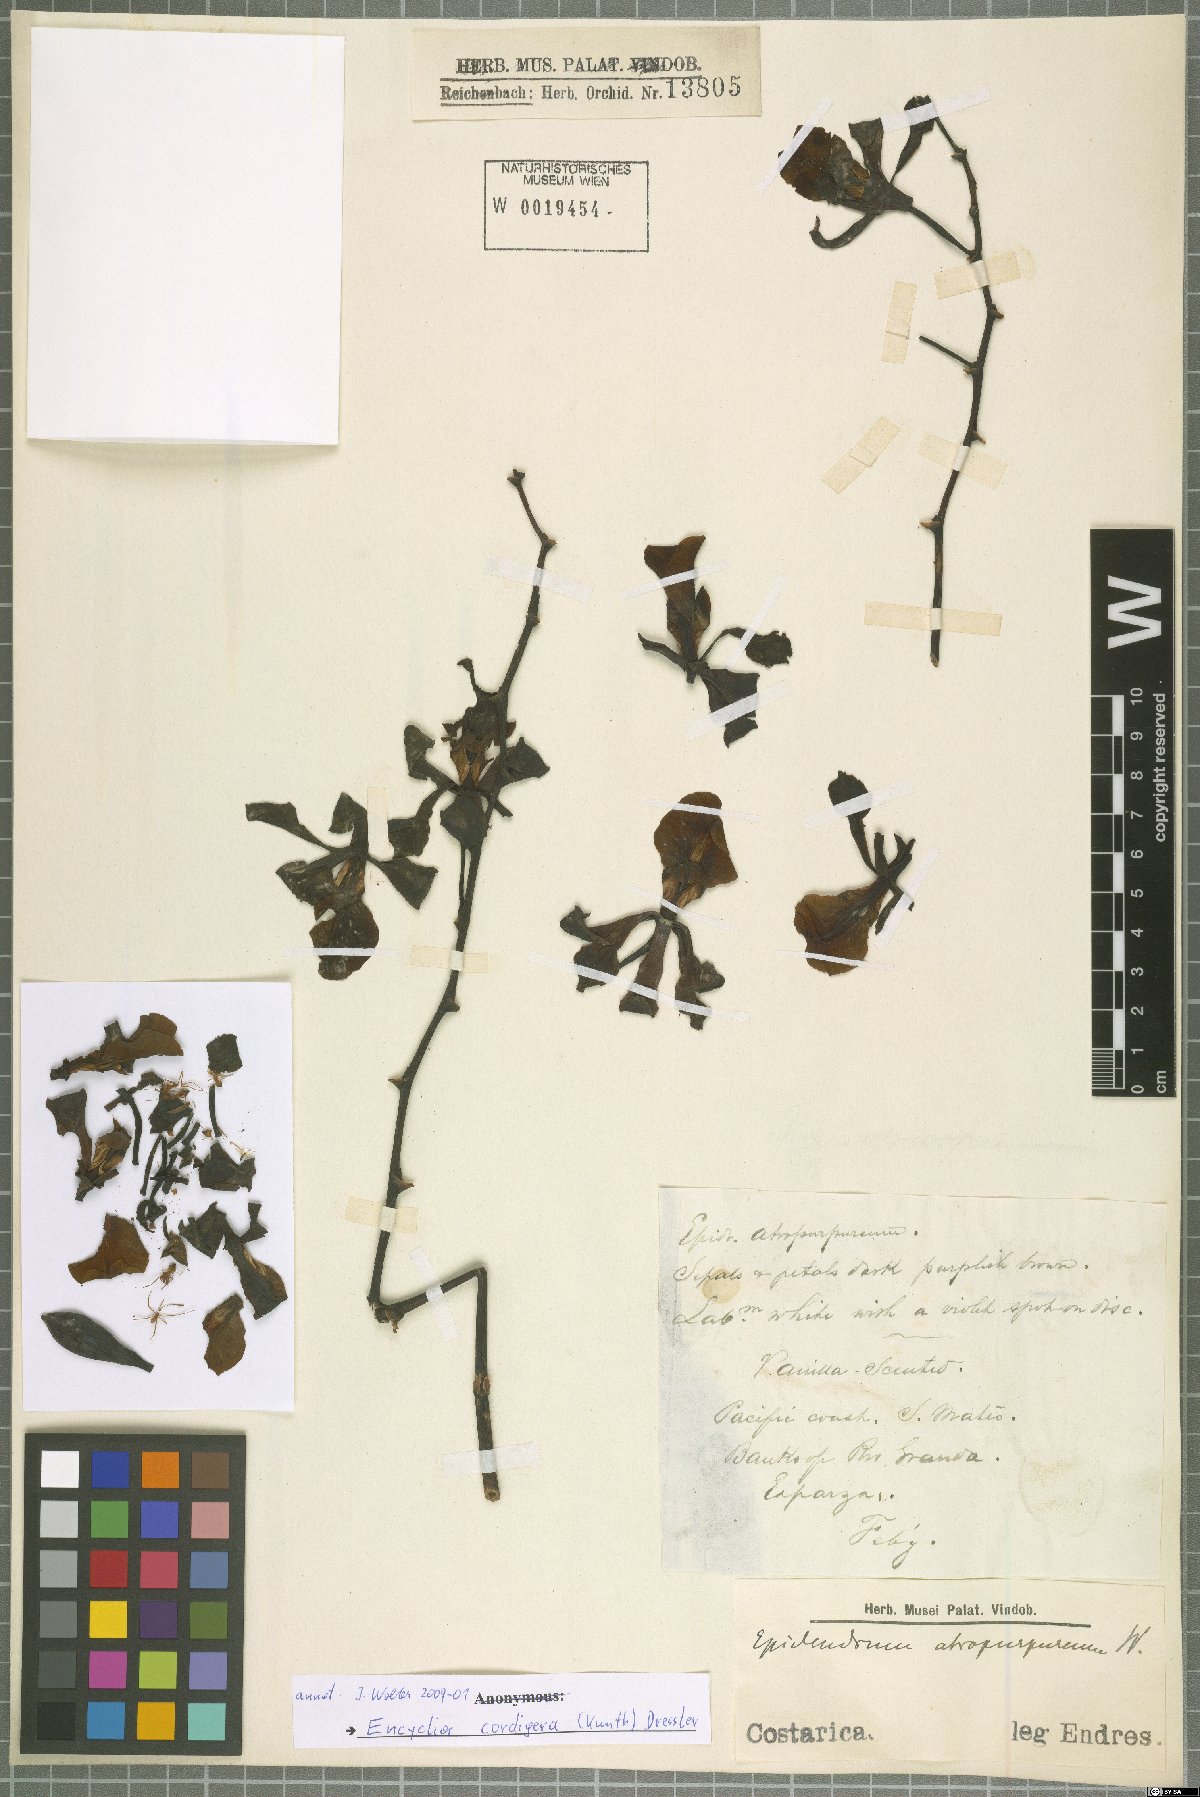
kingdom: Plantae
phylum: Tracheophyta
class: Liliopsida
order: Asparagales
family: Orchidaceae
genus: Encyclia
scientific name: Encyclia cordigera
